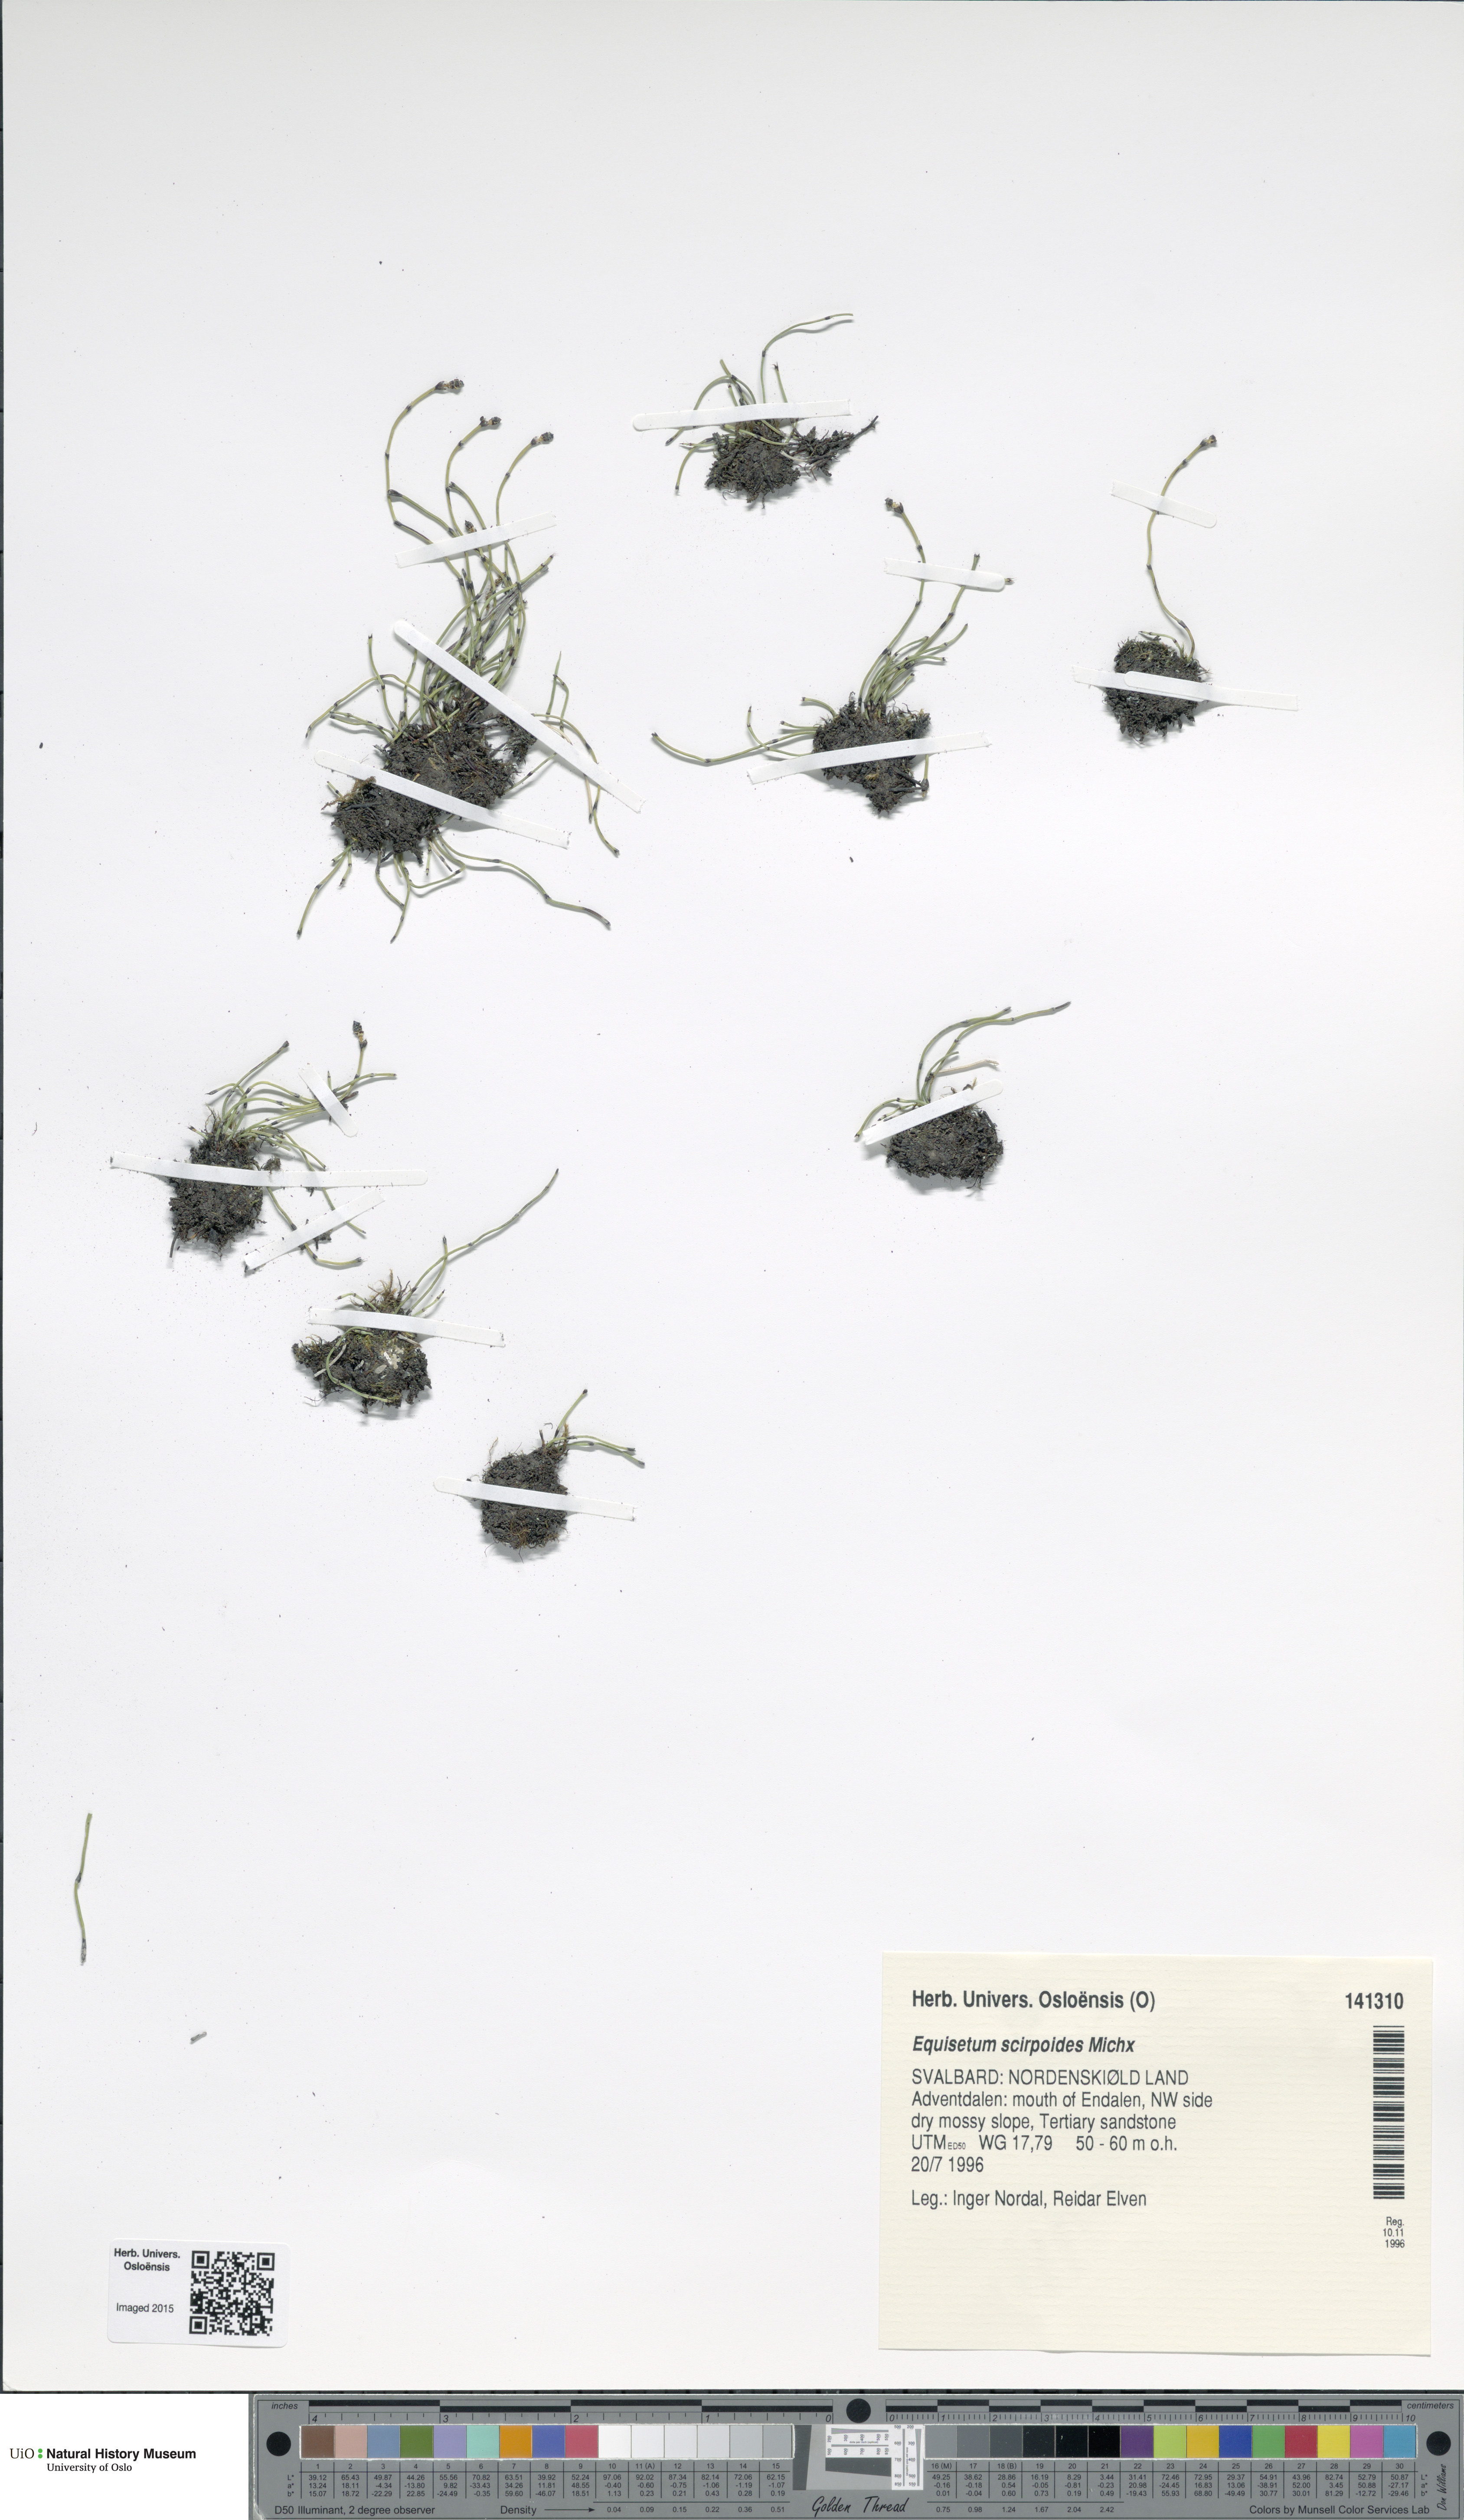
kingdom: Plantae
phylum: Tracheophyta
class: Polypodiopsida
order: Equisetales
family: Equisetaceae
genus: Equisetum
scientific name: Equisetum scirpoides
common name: Delicate horsetail
